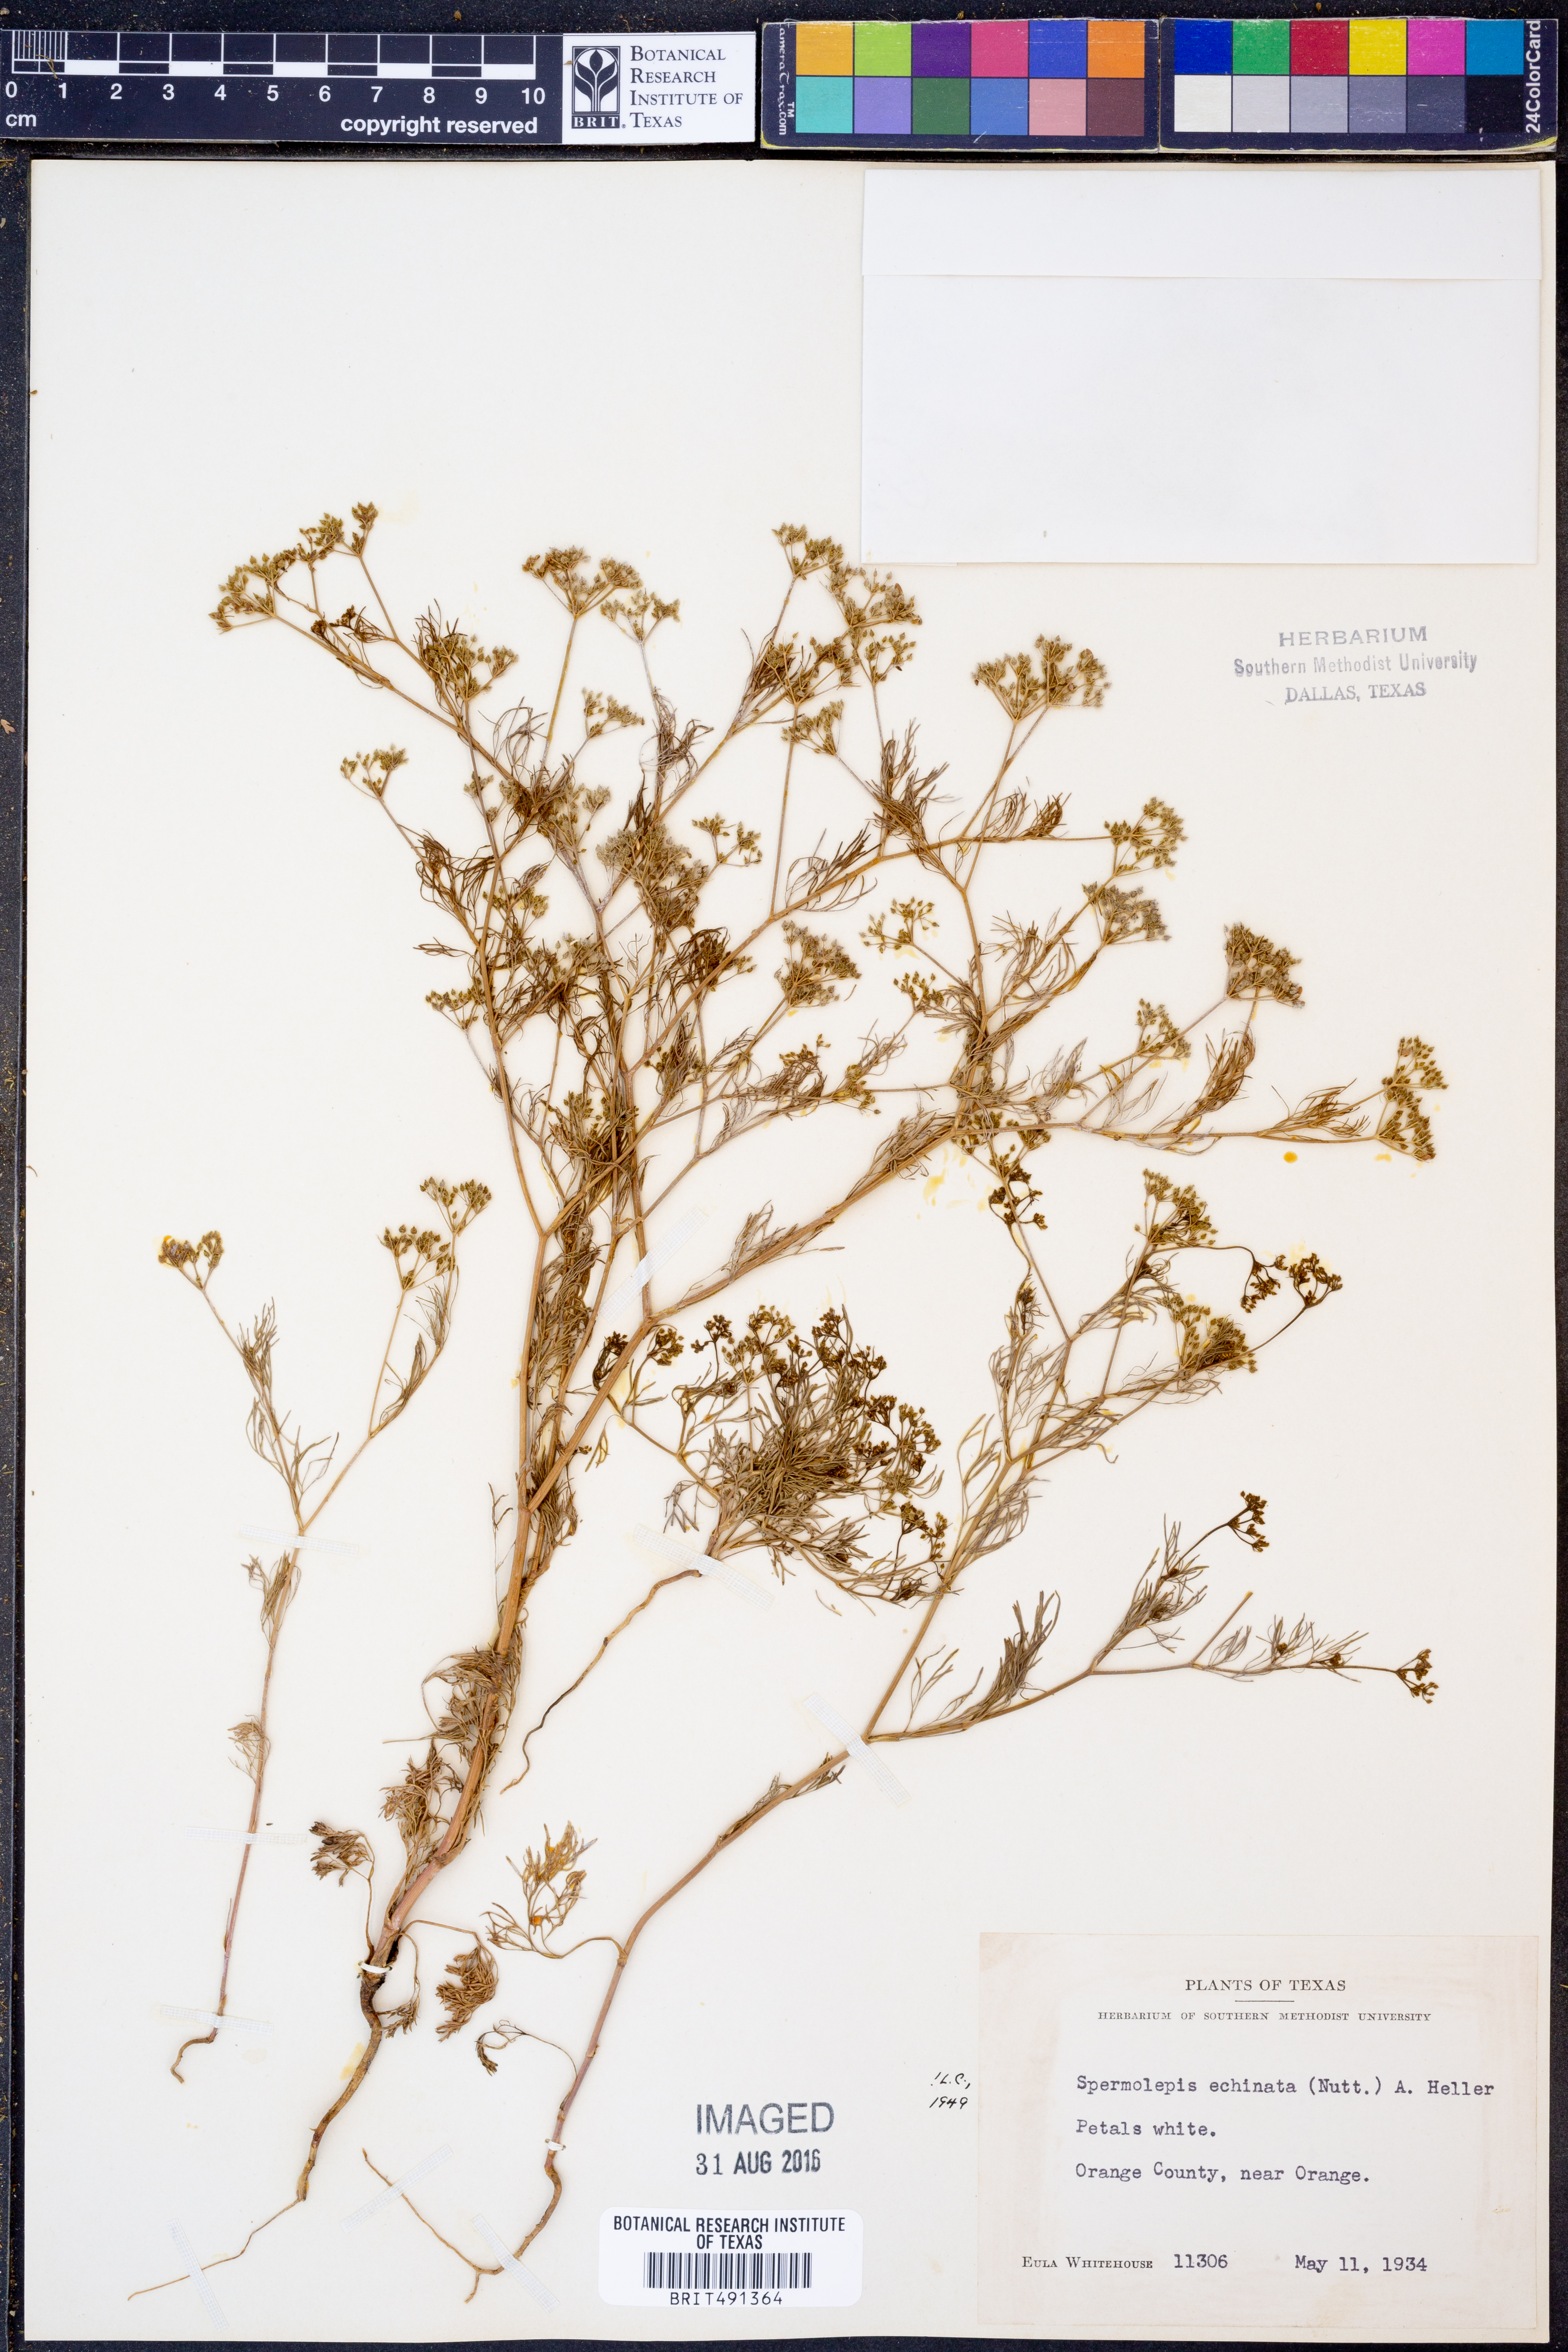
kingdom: Plantae
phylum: Tracheophyta
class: Magnoliopsida
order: Apiales
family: Apiaceae
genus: Spermolepis
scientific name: Spermolepis echinata
